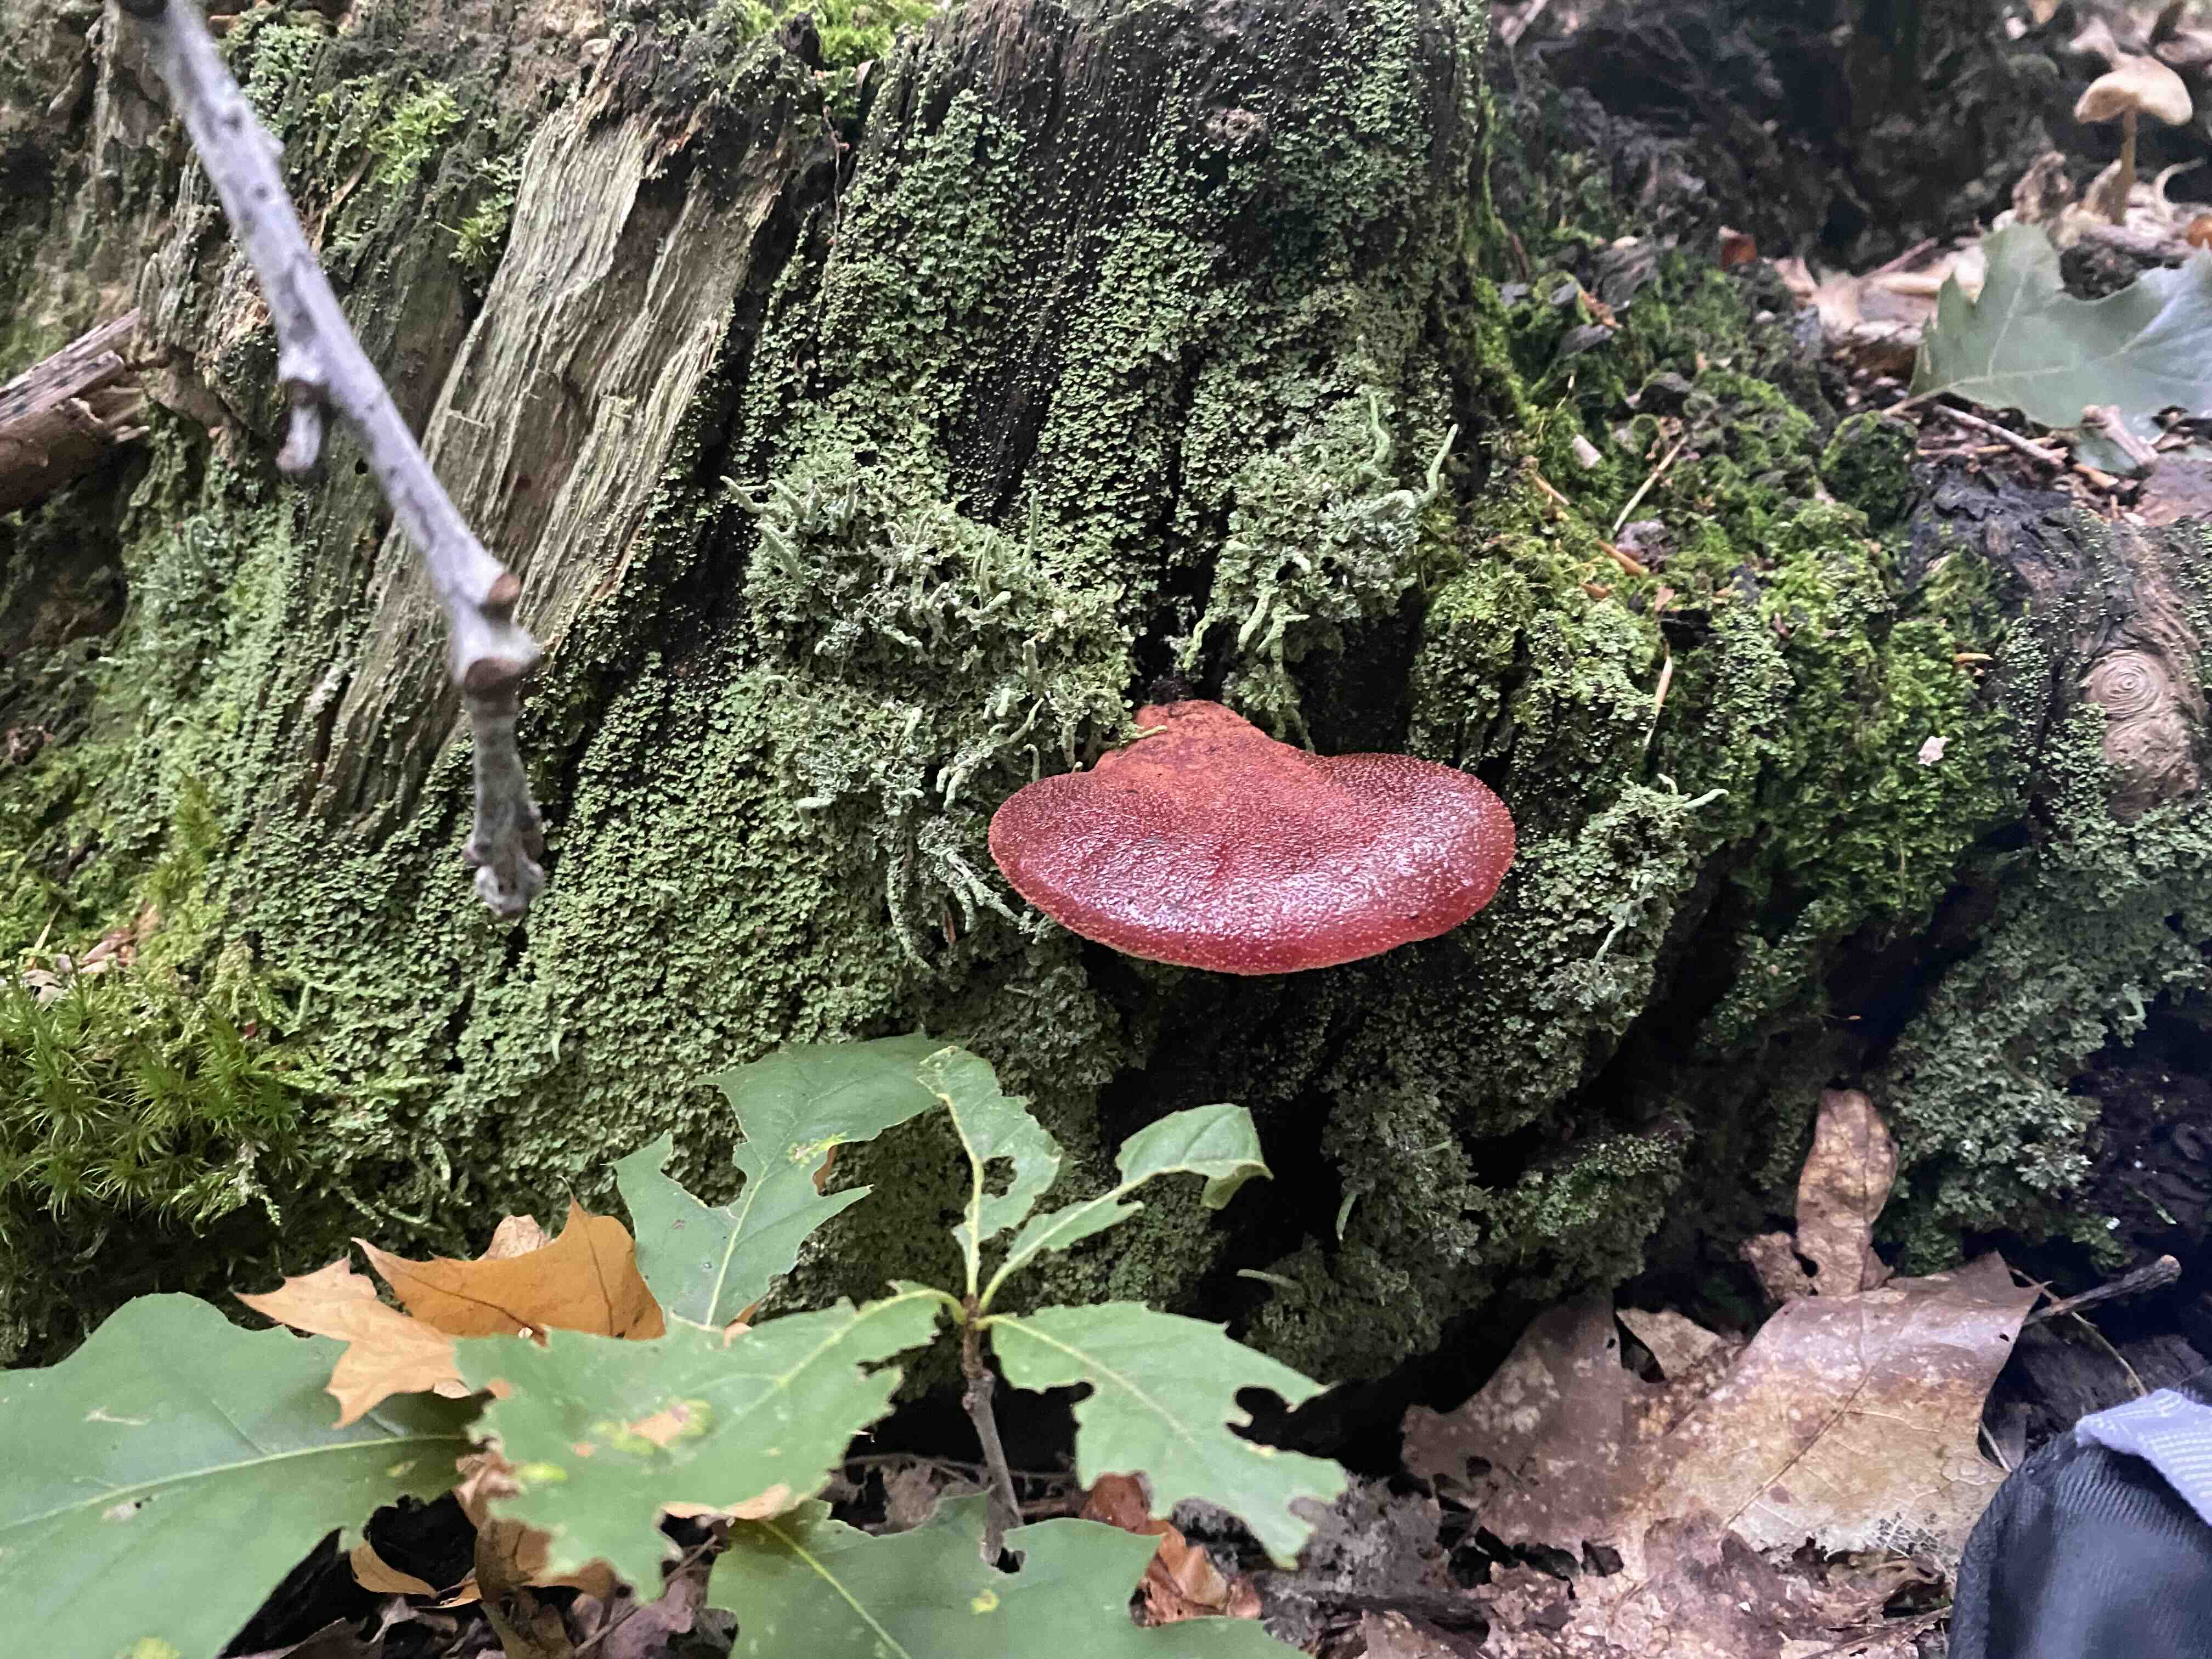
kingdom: Fungi
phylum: Basidiomycota
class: Agaricomycetes
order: Agaricales
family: Fistulinaceae
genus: Fistulina
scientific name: Fistulina hepatica
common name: oksetunge
